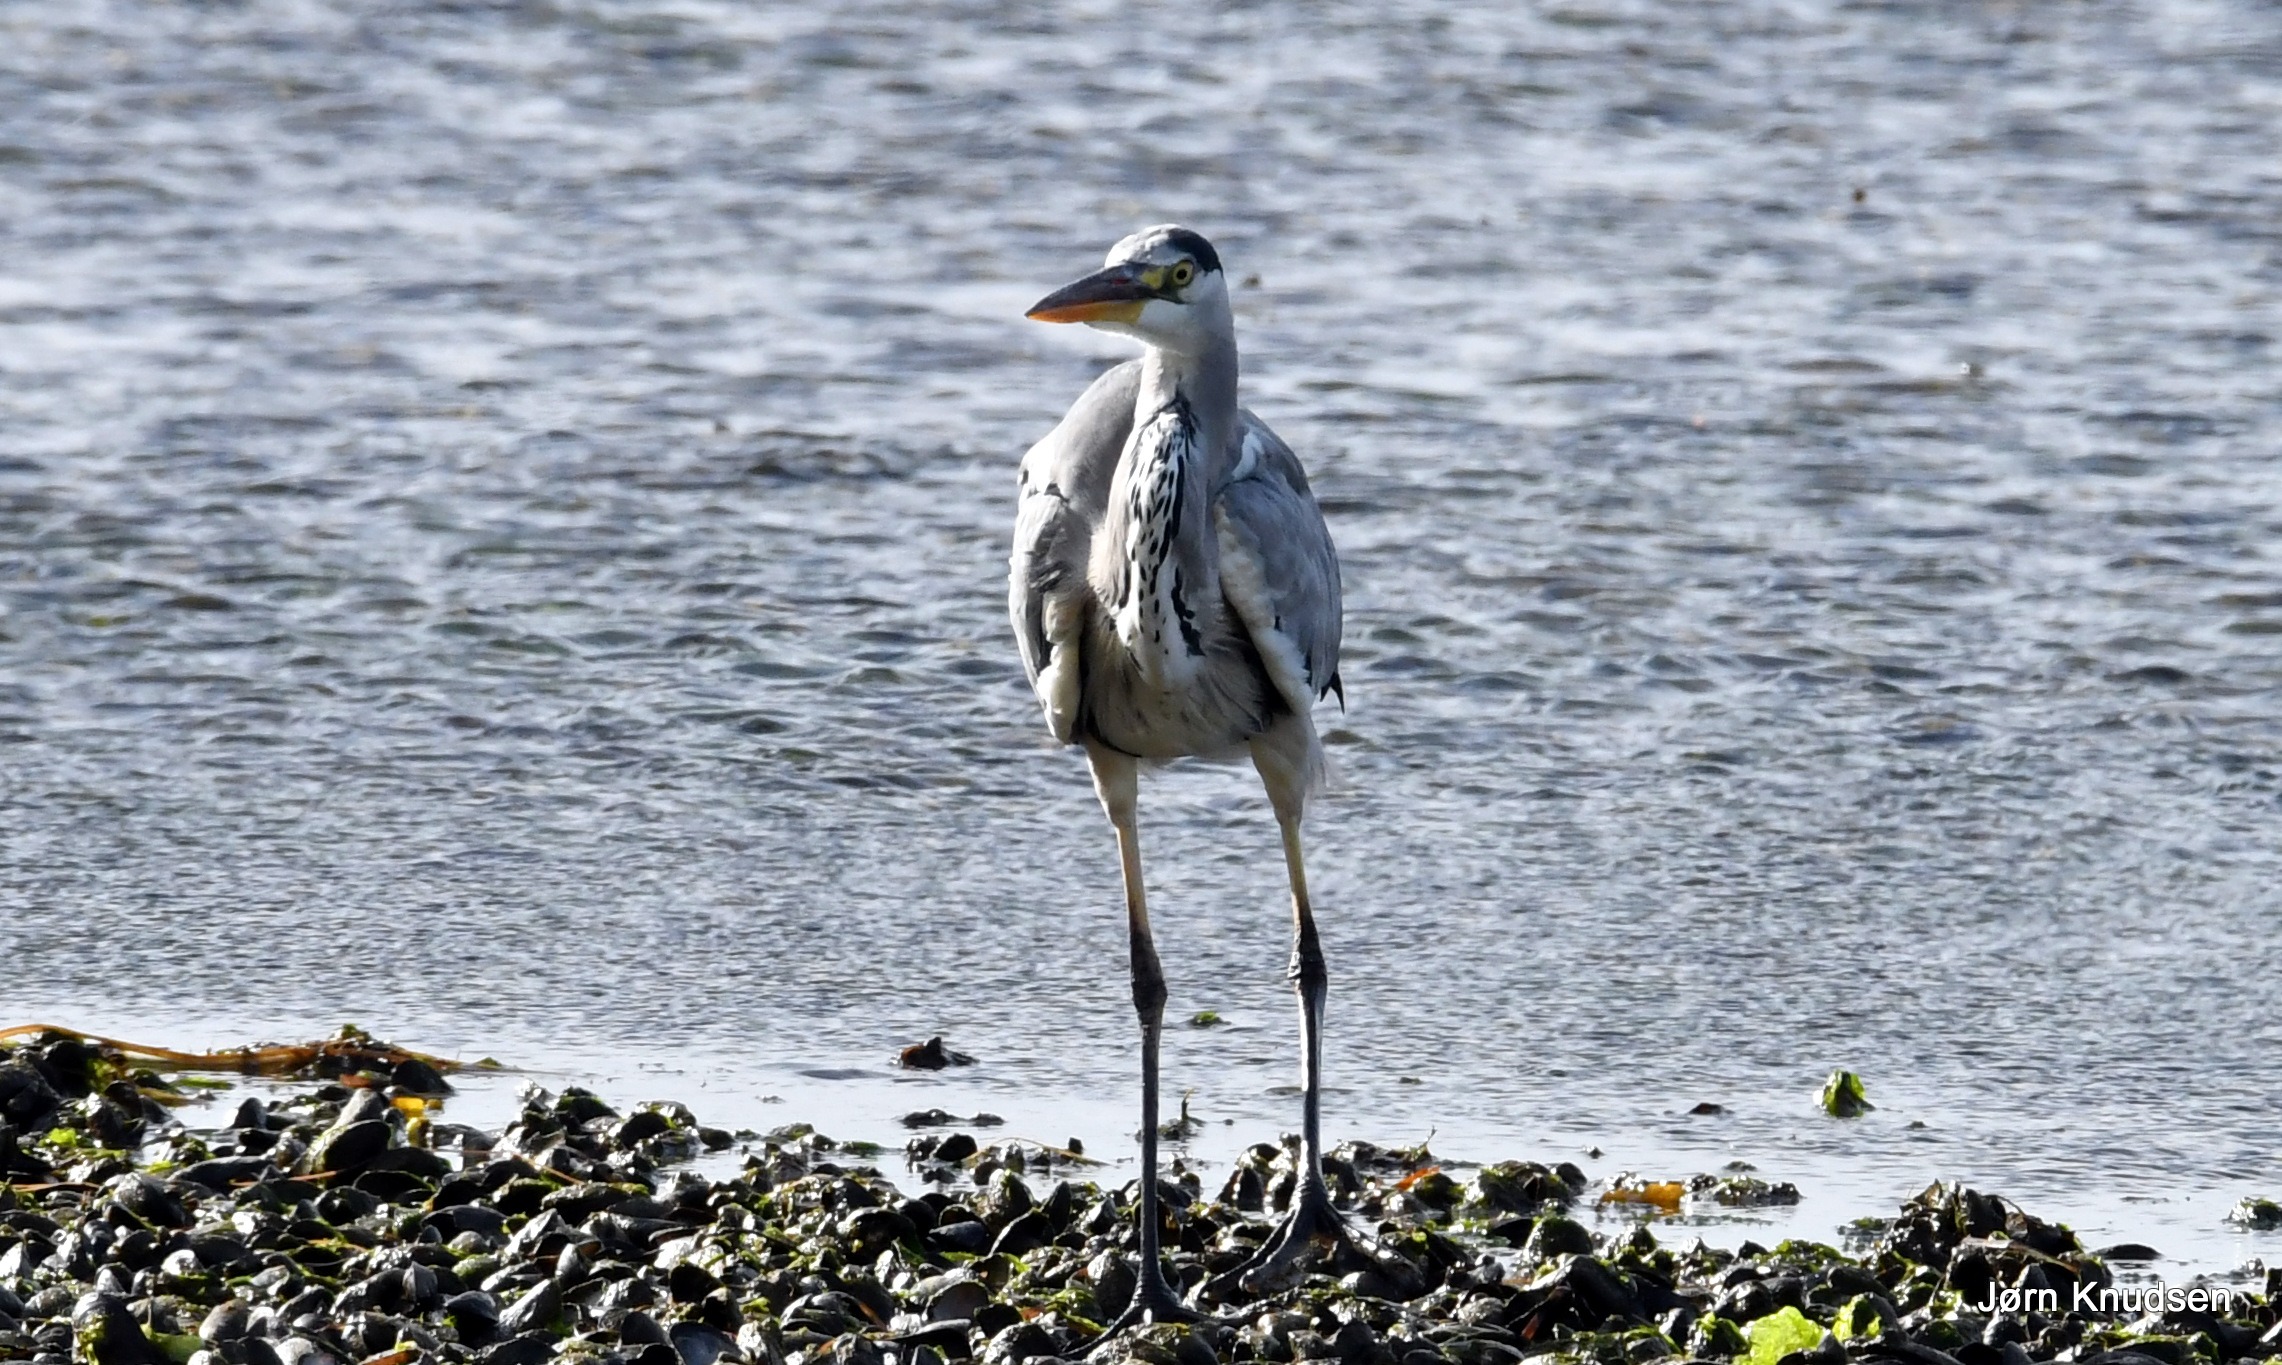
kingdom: Animalia
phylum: Chordata
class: Aves
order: Pelecaniformes
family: Ardeidae
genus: Ardea
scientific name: Ardea cinerea
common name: Fiskehejre
